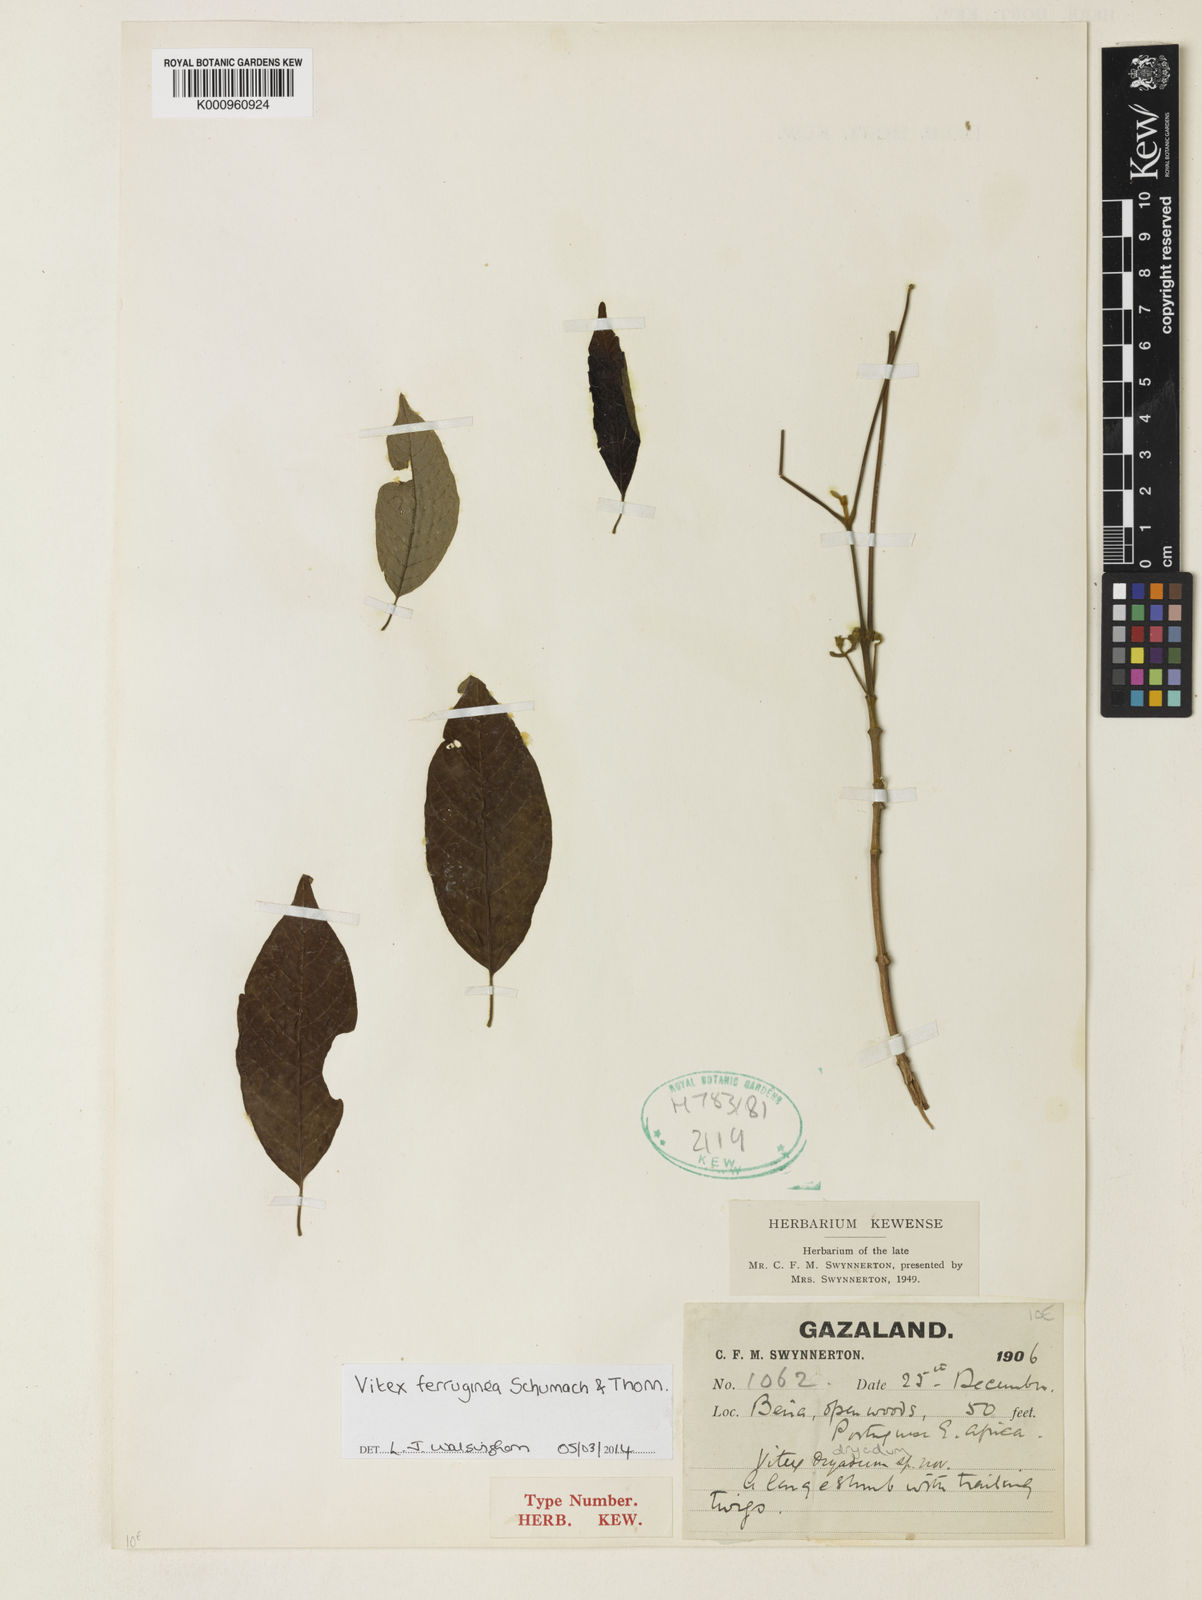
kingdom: Plantae
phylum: Tracheophyta
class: Magnoliopsida
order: Lamiales
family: Lamiaceae
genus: Vitex
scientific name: Vitex ferruginea
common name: Plum fingerleaf
